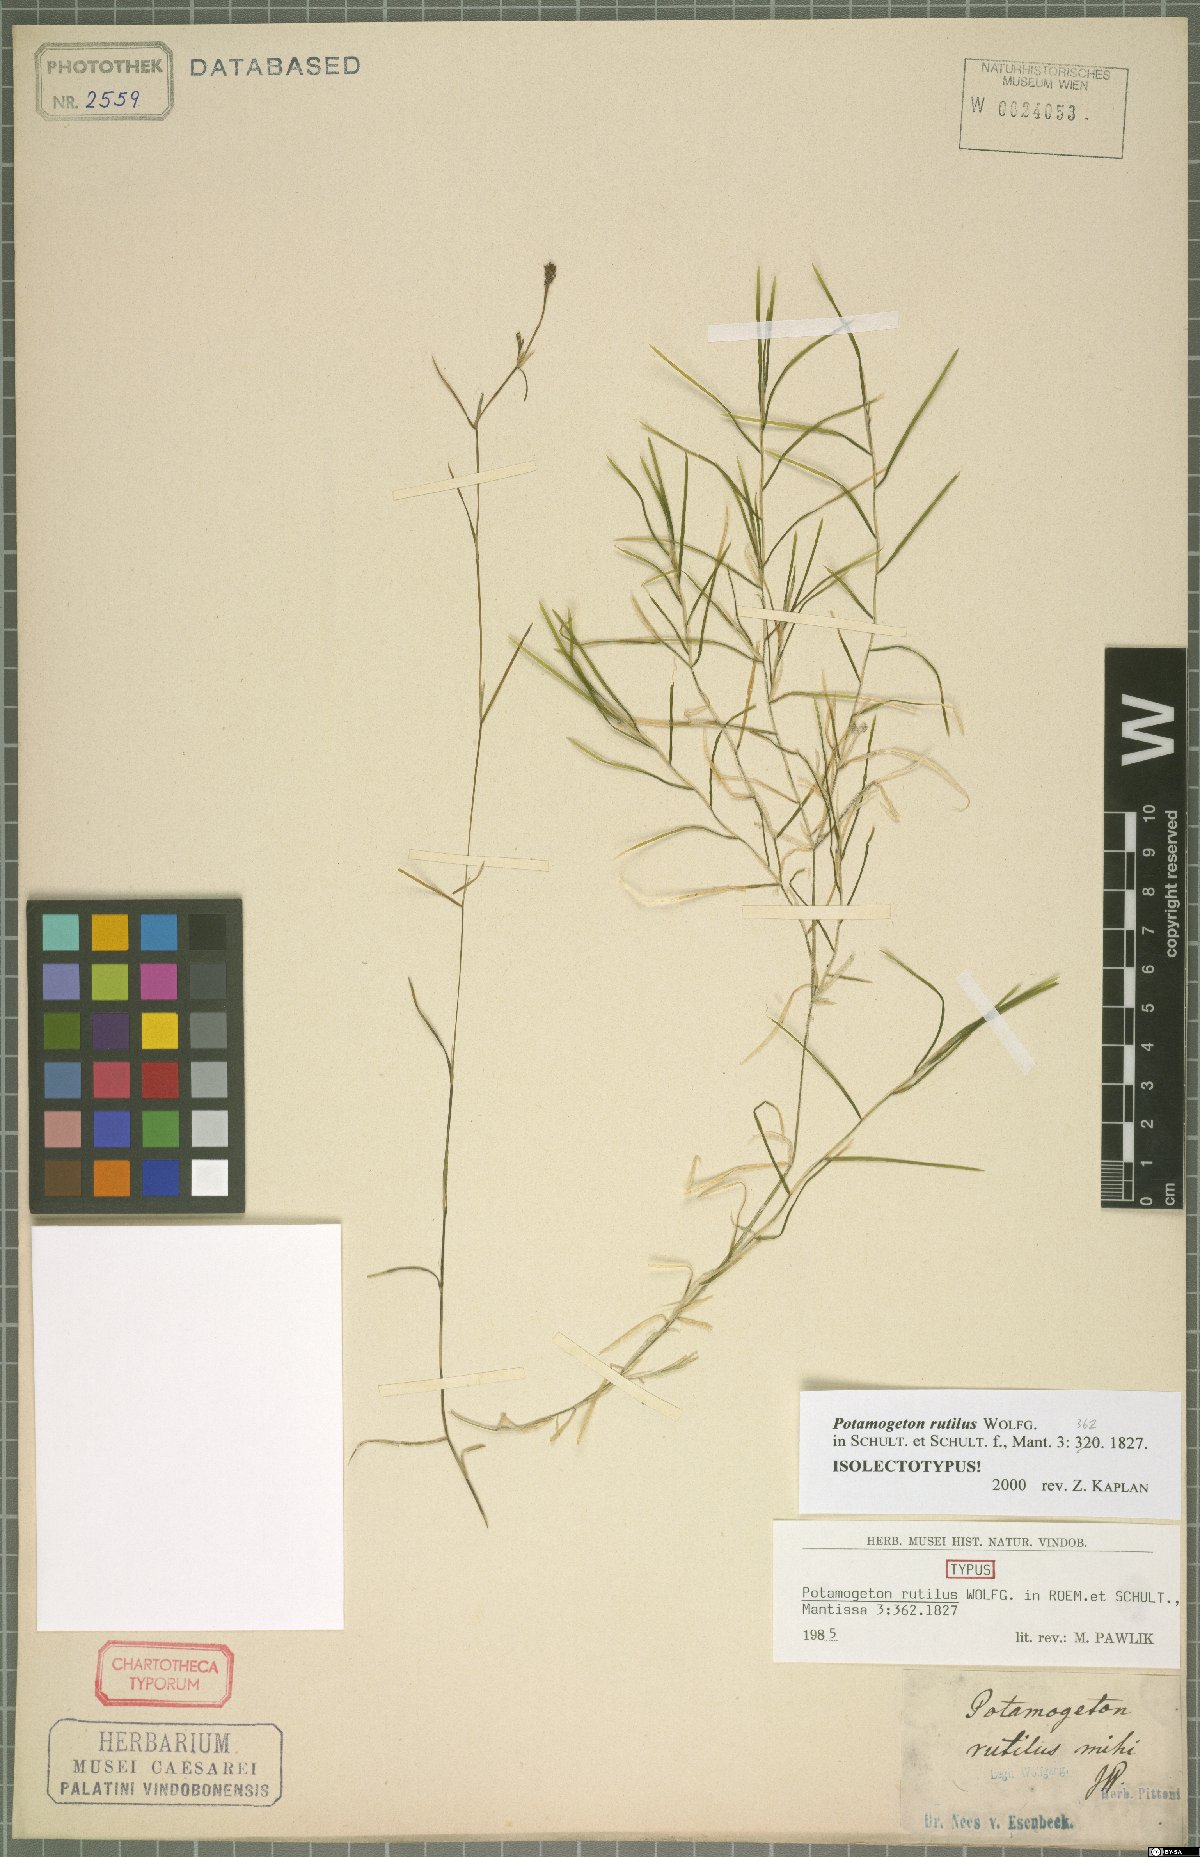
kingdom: Plantae
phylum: Tracheophyta
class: Liliopsida
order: Alismatales
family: Potamogetonaceae
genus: Potamogeton
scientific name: Potamogeton rutilus
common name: Shetland pondweed
